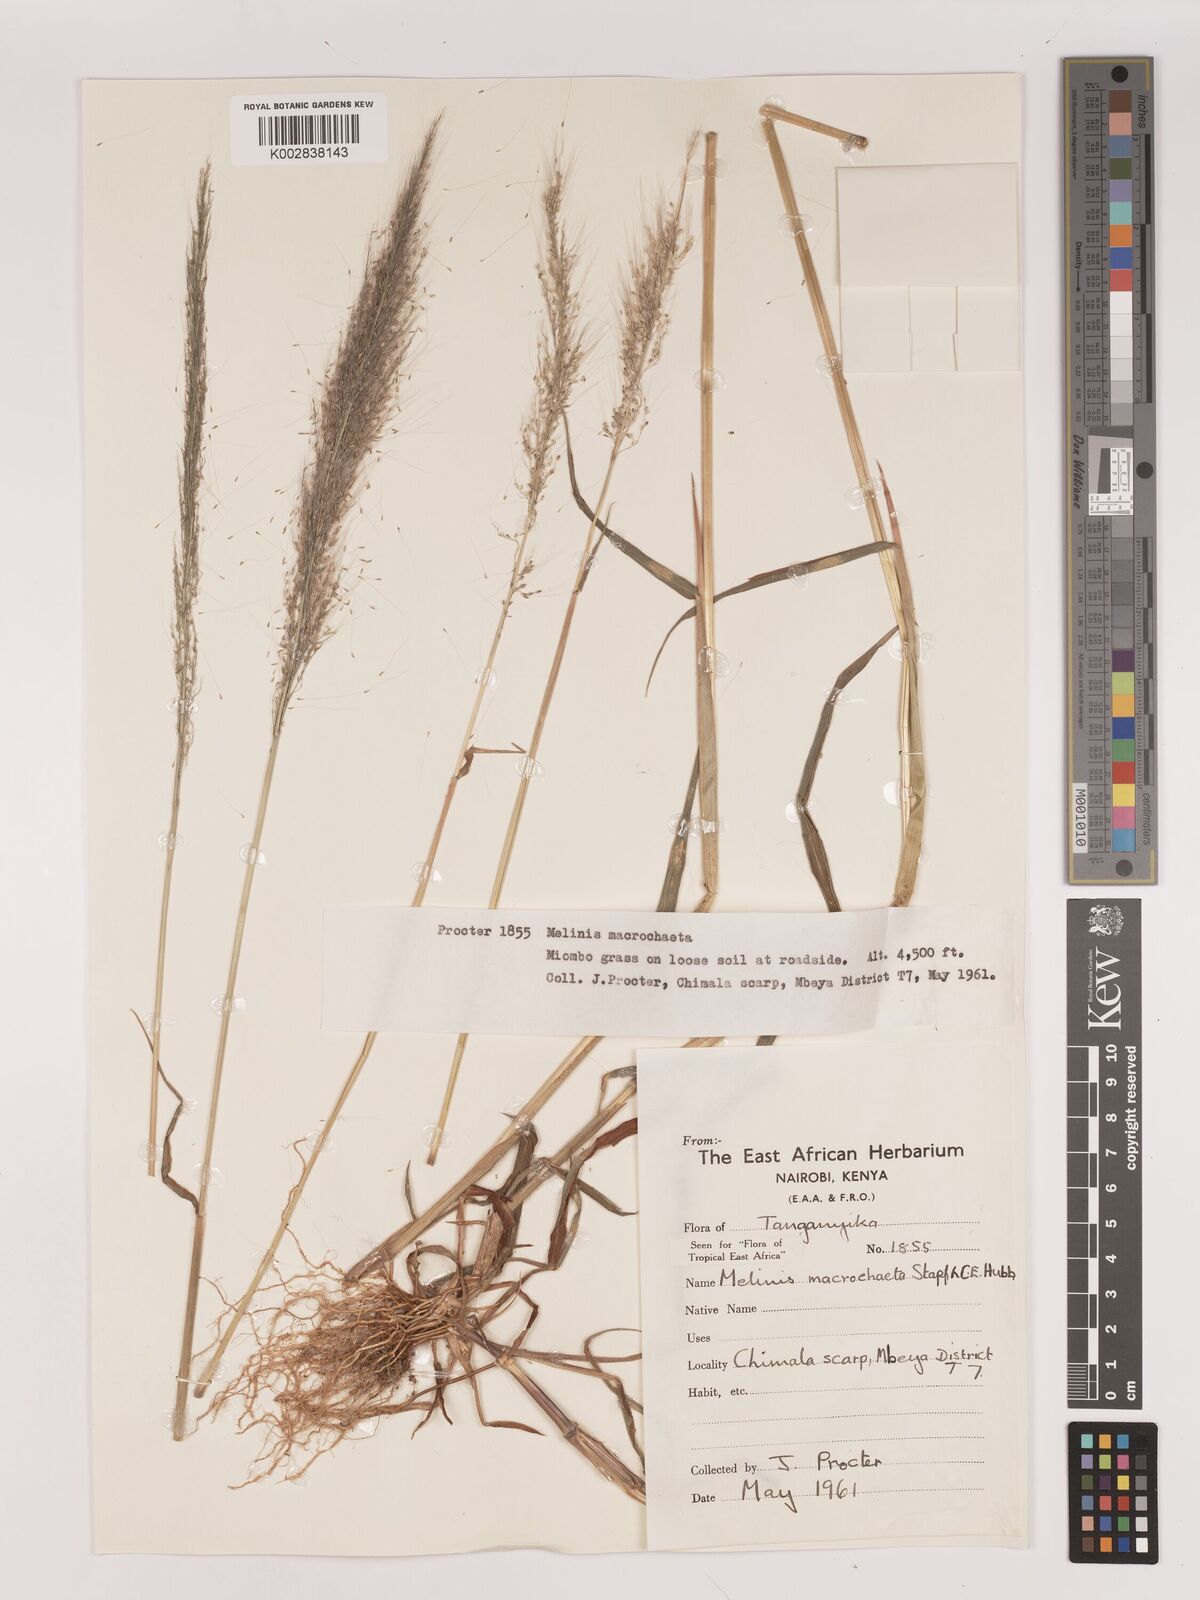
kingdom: Plantae
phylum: Tracheophyta
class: Liliopsida
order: Poales
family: Poaceae
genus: Melinis
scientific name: Melinis macrochaeta
